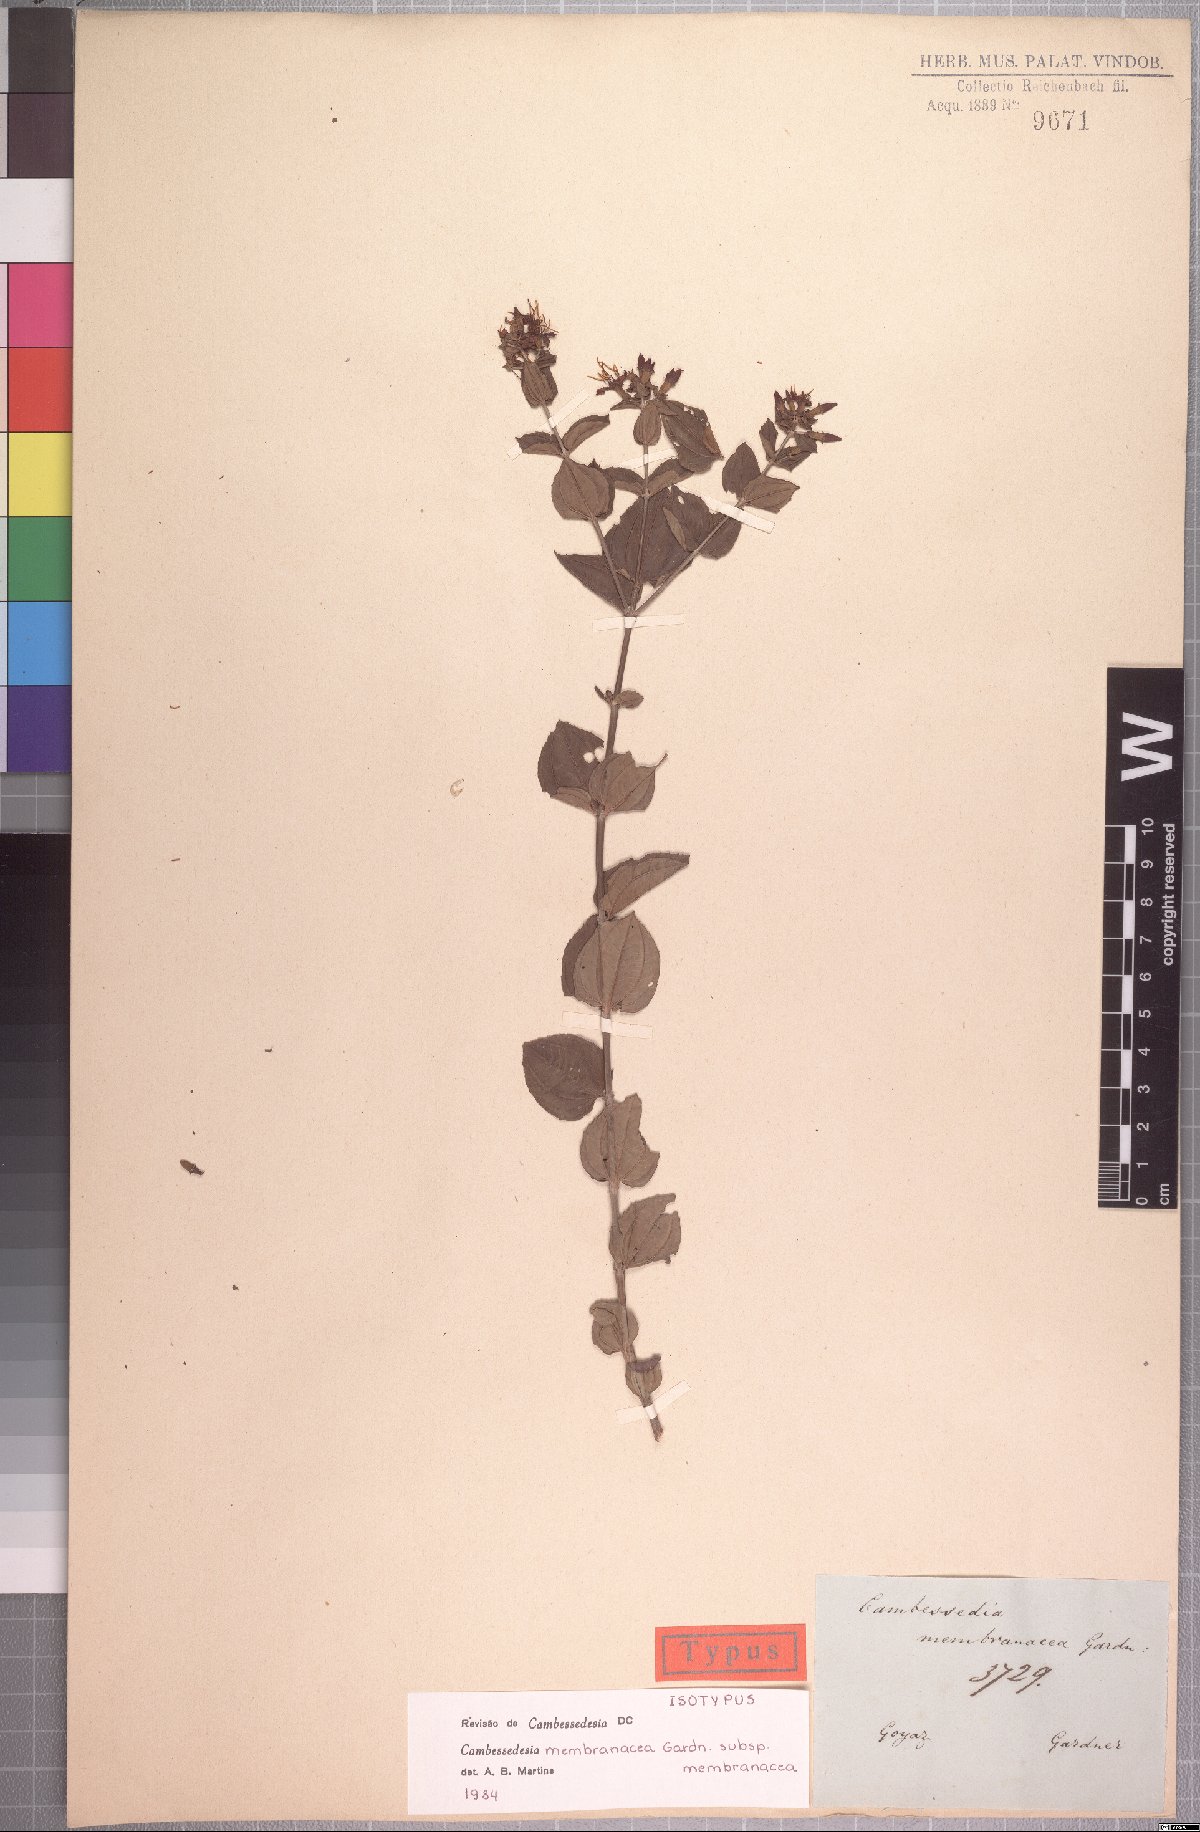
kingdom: Plantae
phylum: Tracheophyta
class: Magnoliopsida
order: Myrtales
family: Melastomataceae
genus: Cambessedesia
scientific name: Cambessedesia membranacea
